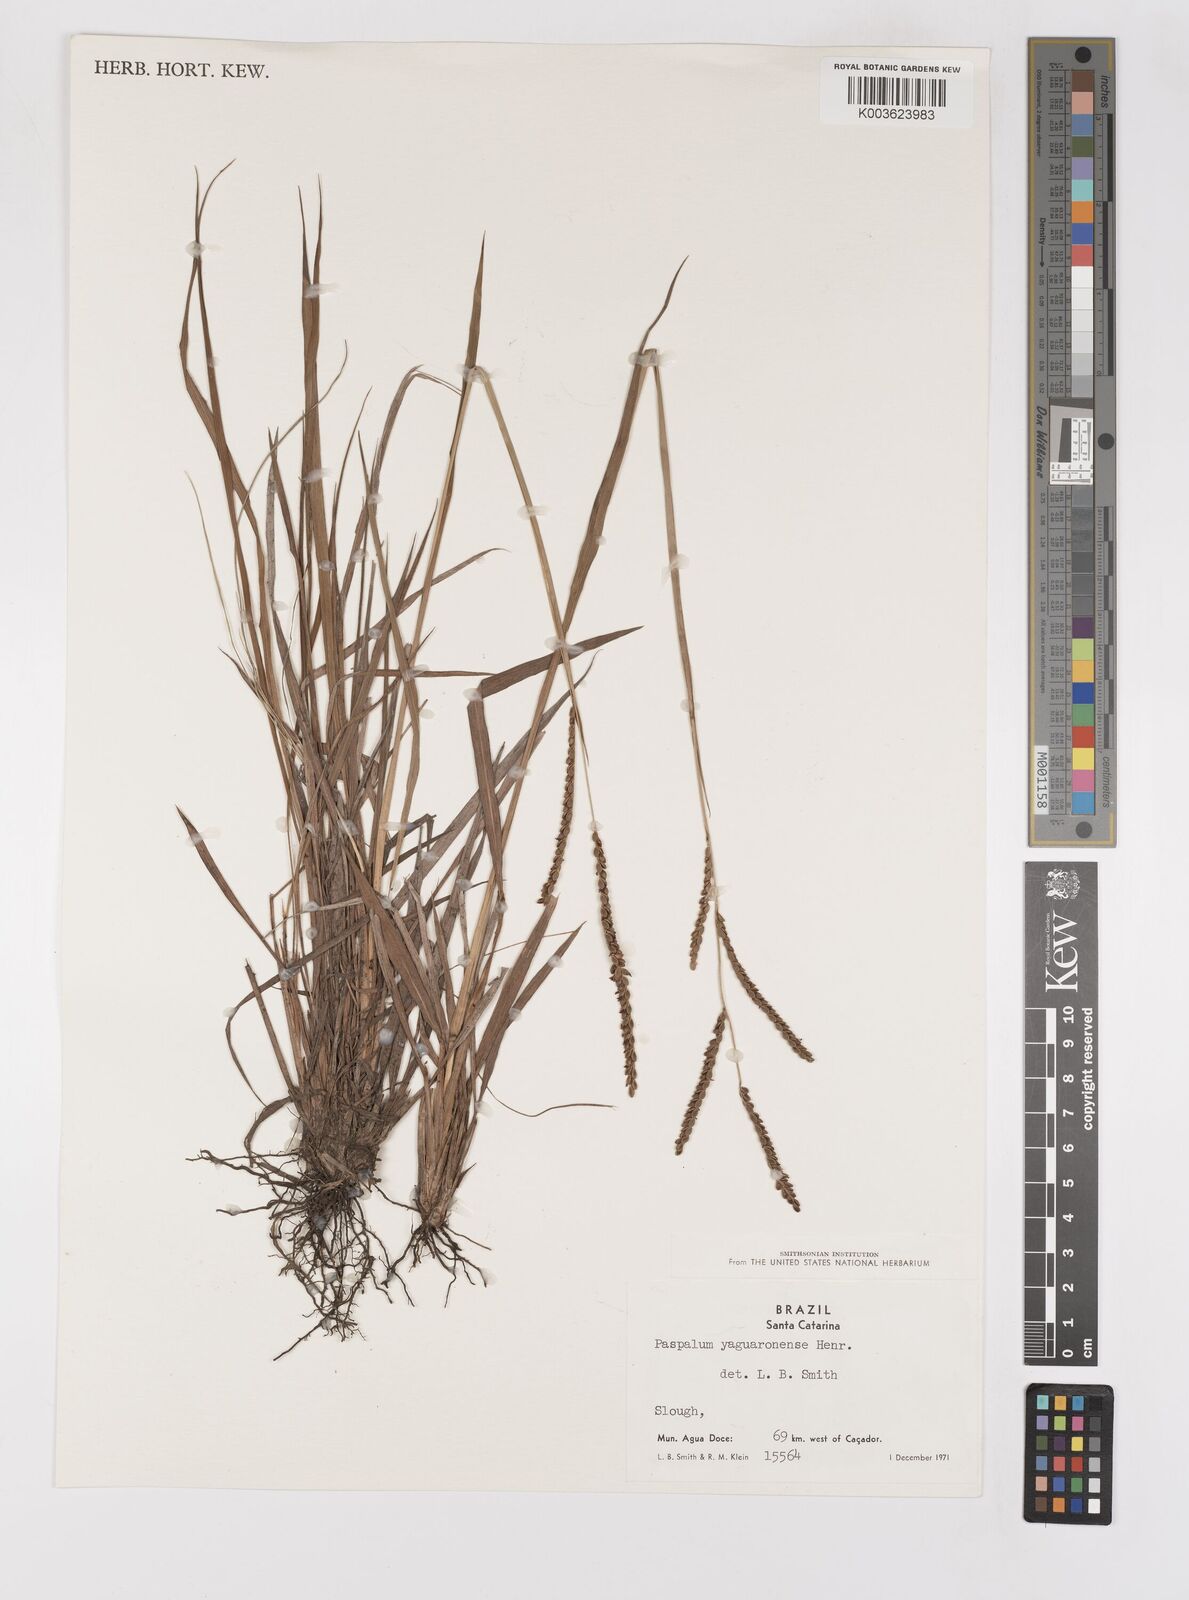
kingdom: Plantae
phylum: Tracheophyta
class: Liliopsida
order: Poales
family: Poaceae
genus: Paspalum
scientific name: Paspalum
